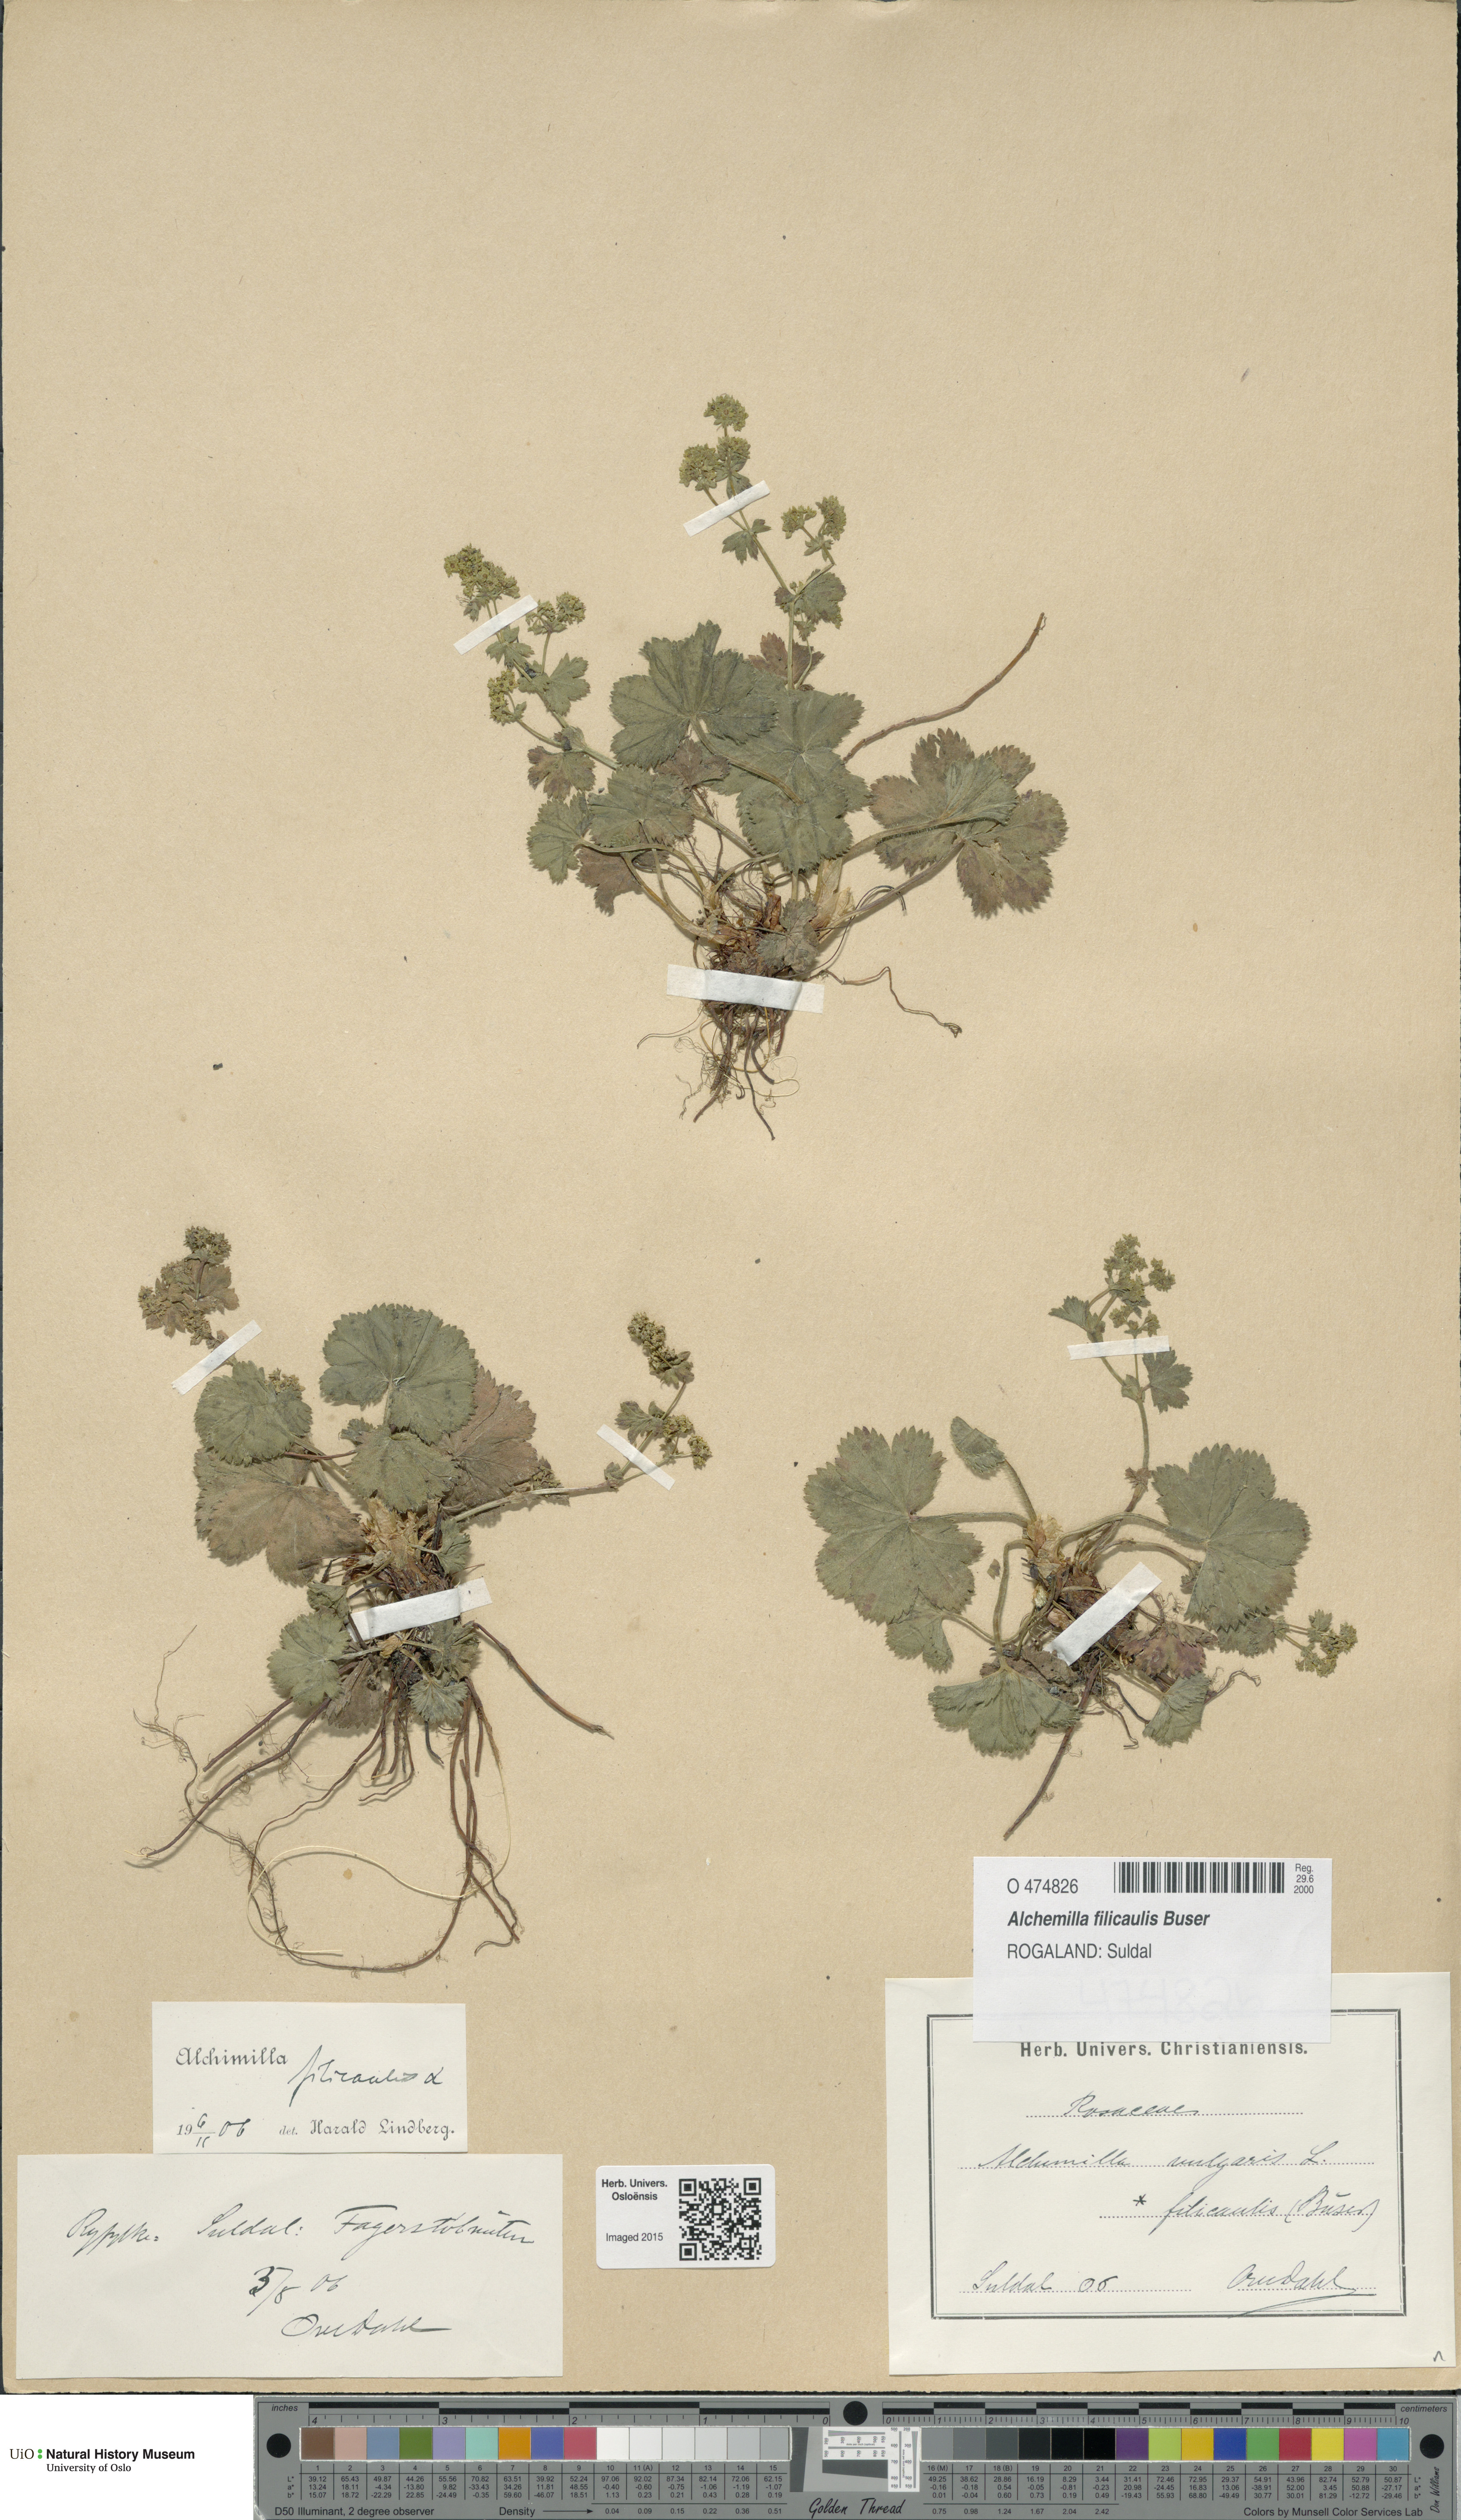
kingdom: Plantae
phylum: Tracheophyta
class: Magnoliopsida
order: Rosales
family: Rosaceae
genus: Alchemilla
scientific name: Alchemilla filicaulis
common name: Hairy lady's-mantle
